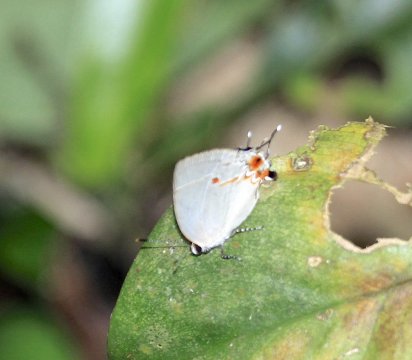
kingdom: Animalia
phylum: Arthropoda
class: Insecta
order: Lepidoptera
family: Lycaenidae
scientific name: Lycaenidae
